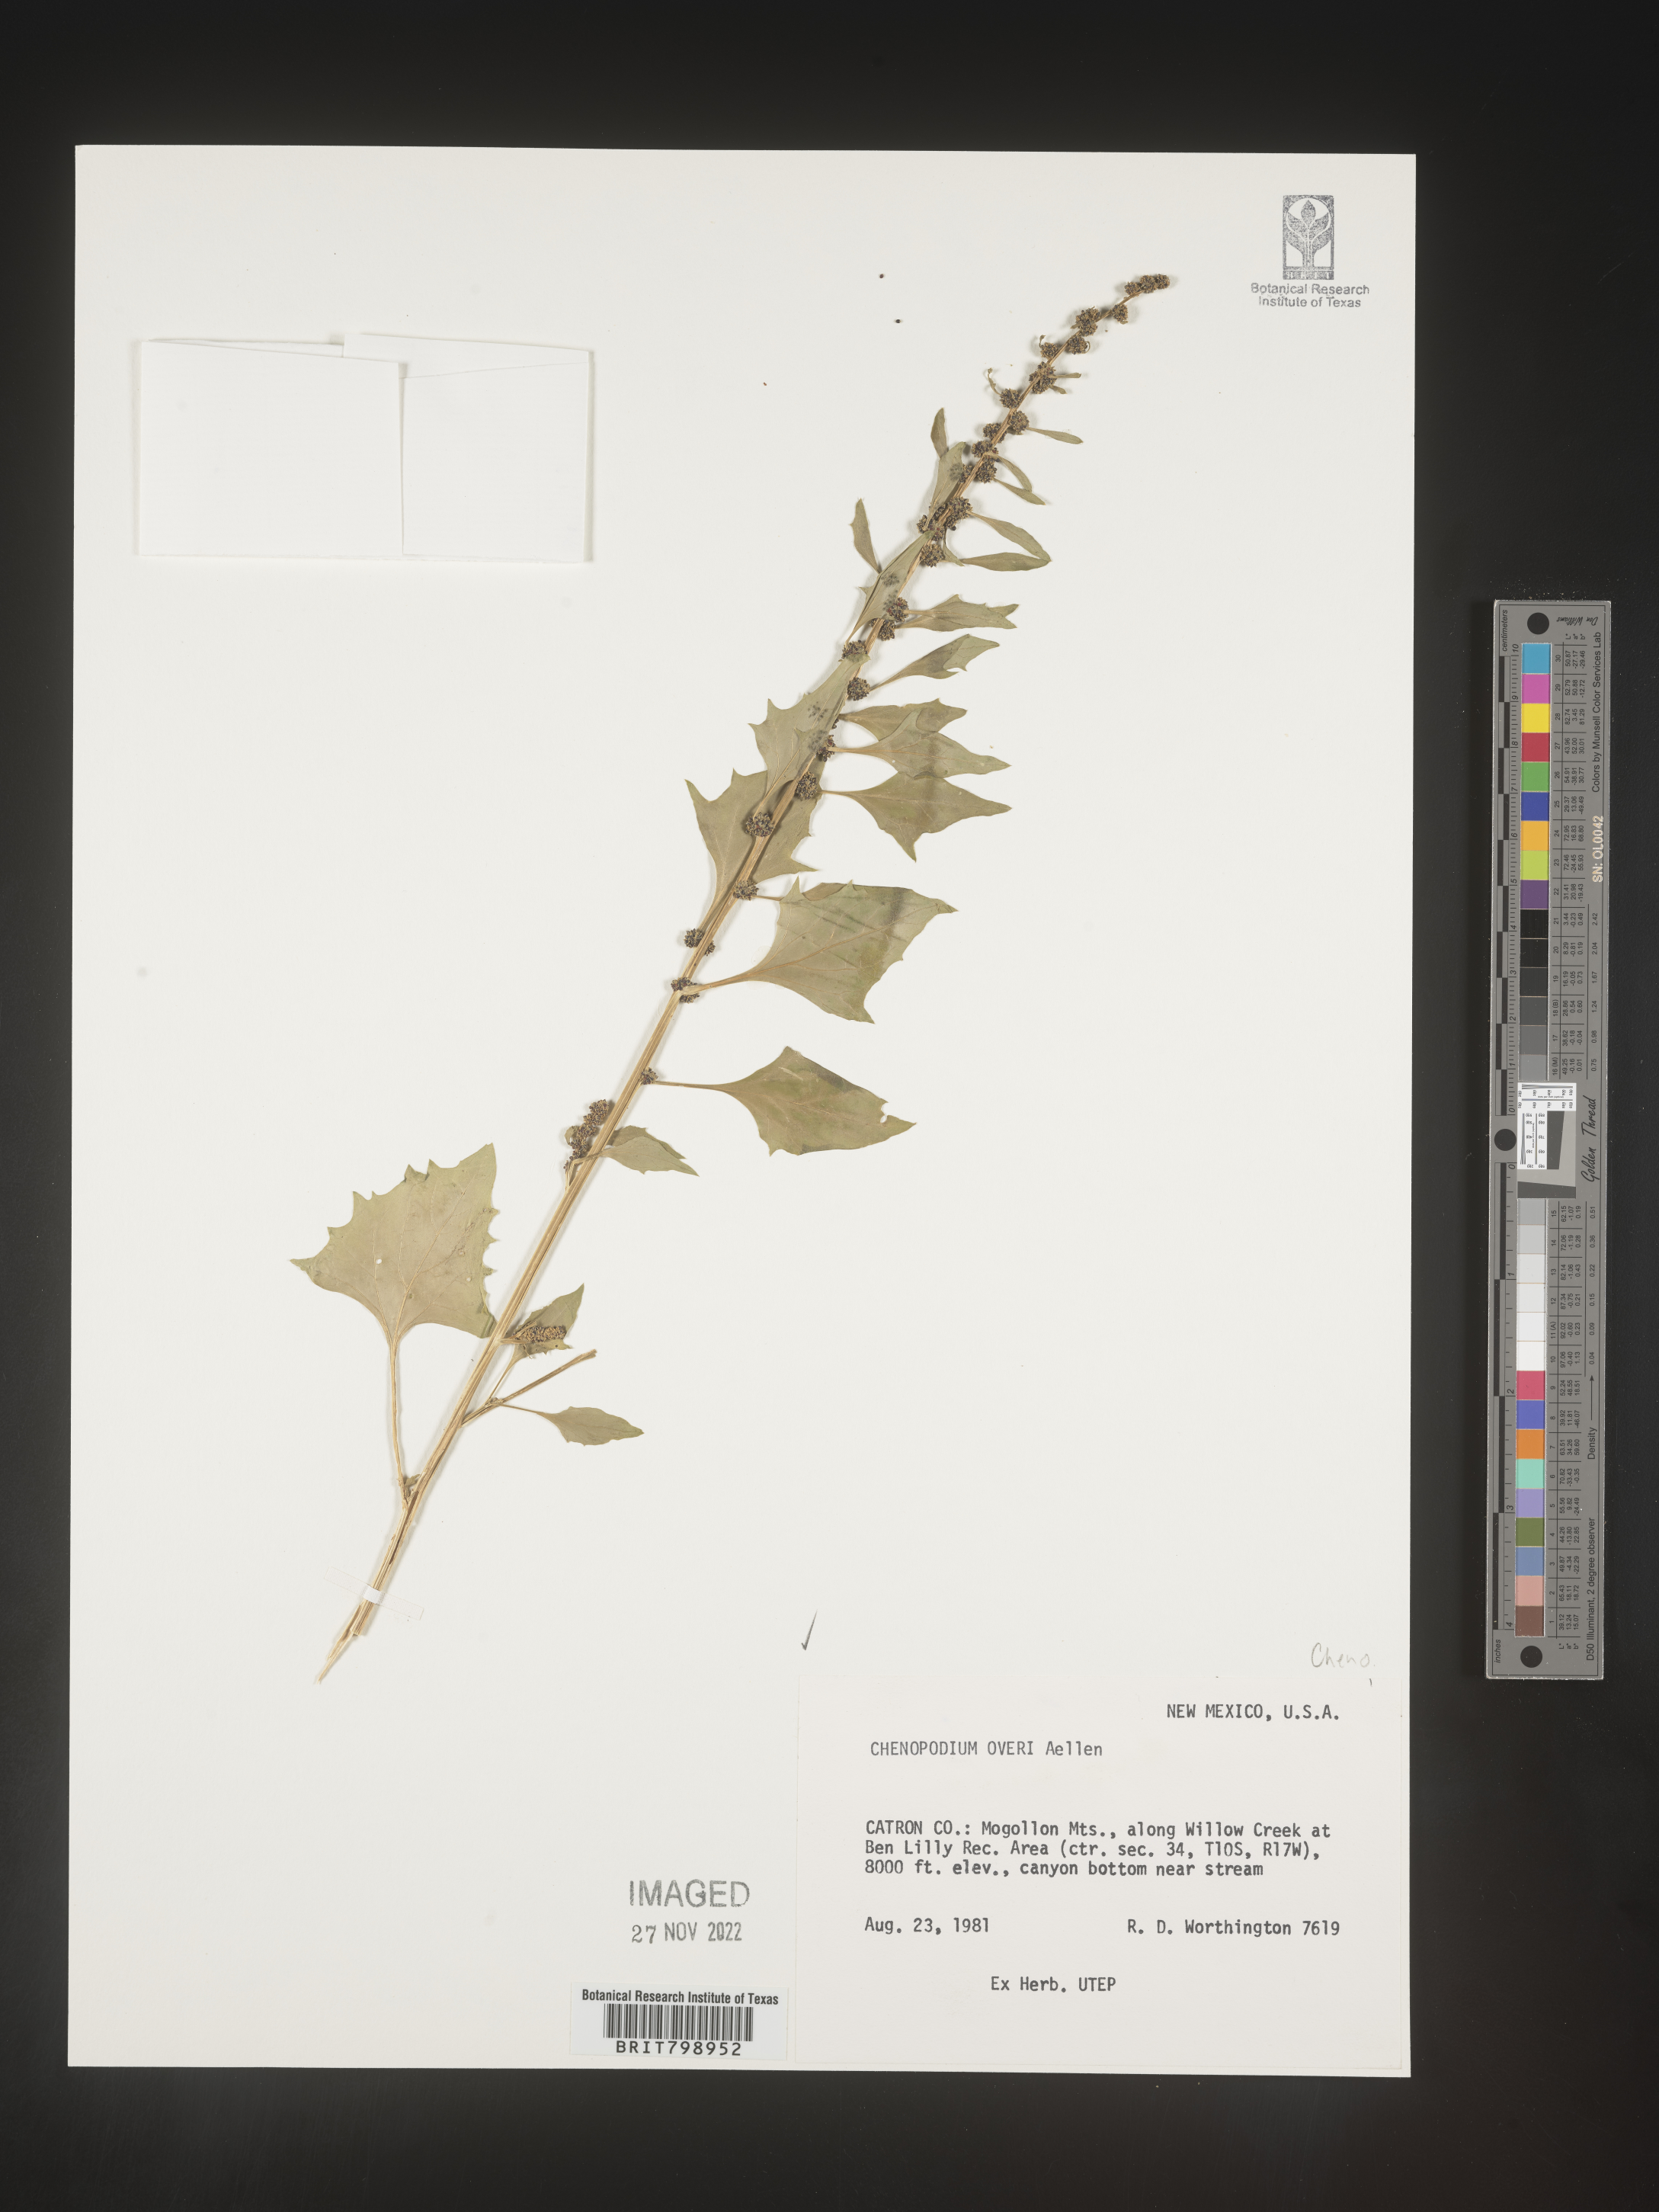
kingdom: Plantae
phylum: Tracheophyta
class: Magnoliopsida
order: Caryophyllales
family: Amaranthaceae
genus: Blitum
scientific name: Blitum capitatum
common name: Strawberry-blight
